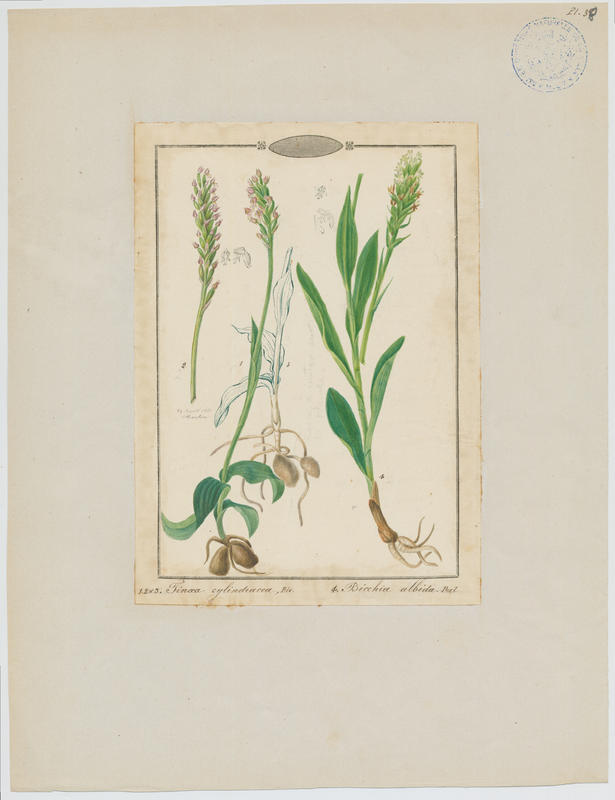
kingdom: Plantae
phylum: Tracheophyta
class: Liliopsida
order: Asparagales
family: Orchidaceae
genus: Pseudorchis
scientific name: Pseudorchis albida
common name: Small-white orchid
